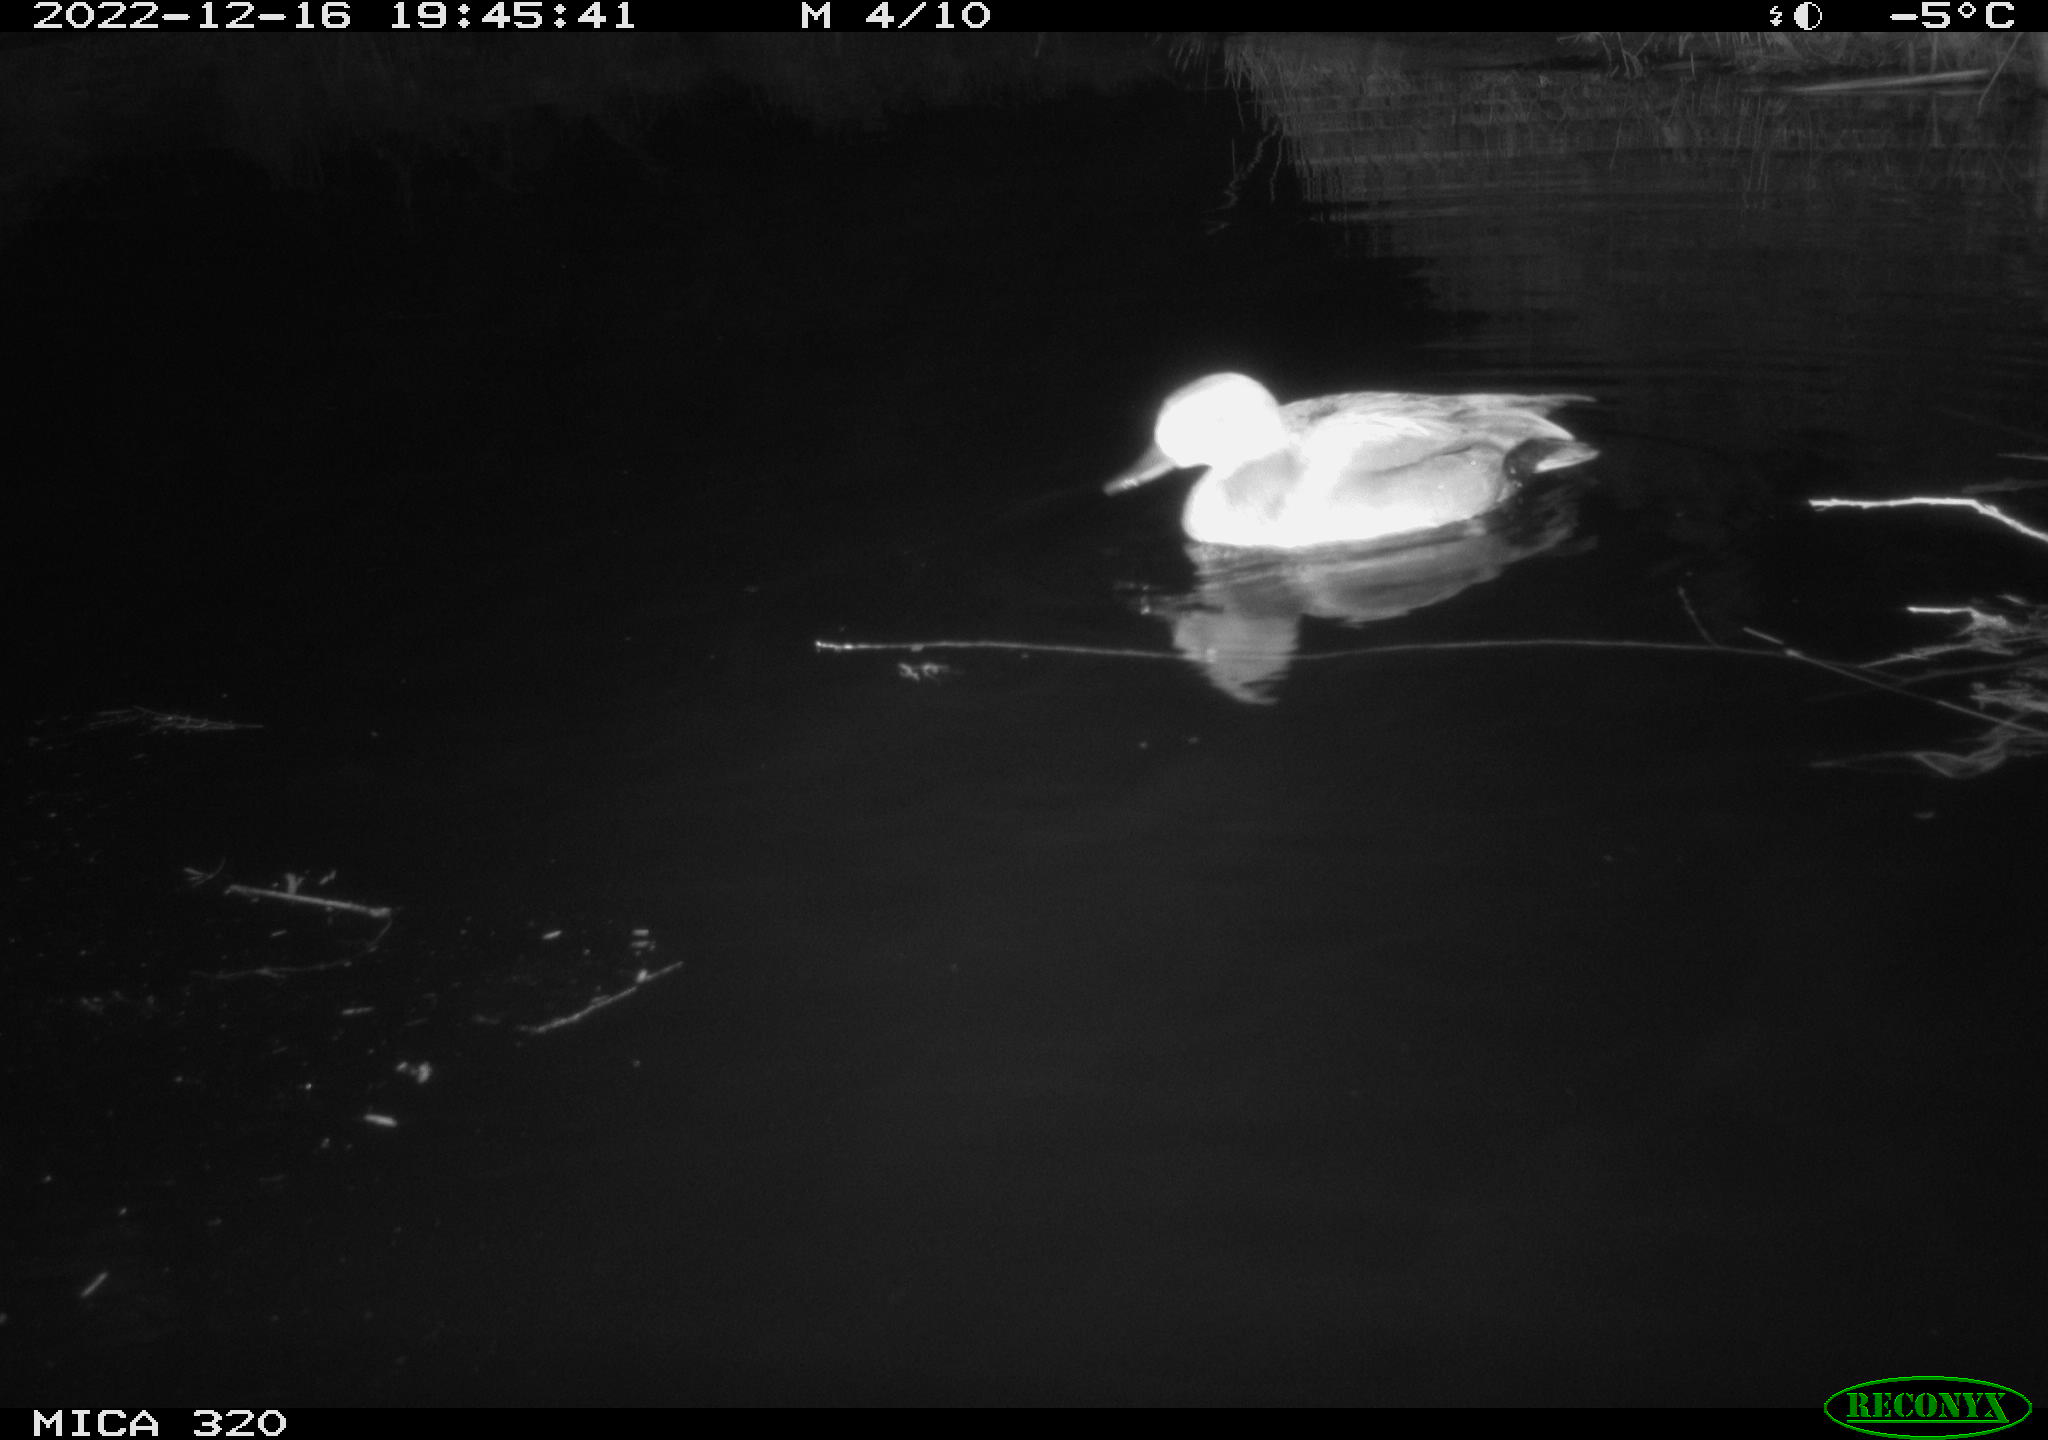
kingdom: Animalia
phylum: Chordata
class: Aves
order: Anseriformes
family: Anatidae
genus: Anas
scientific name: Anas
